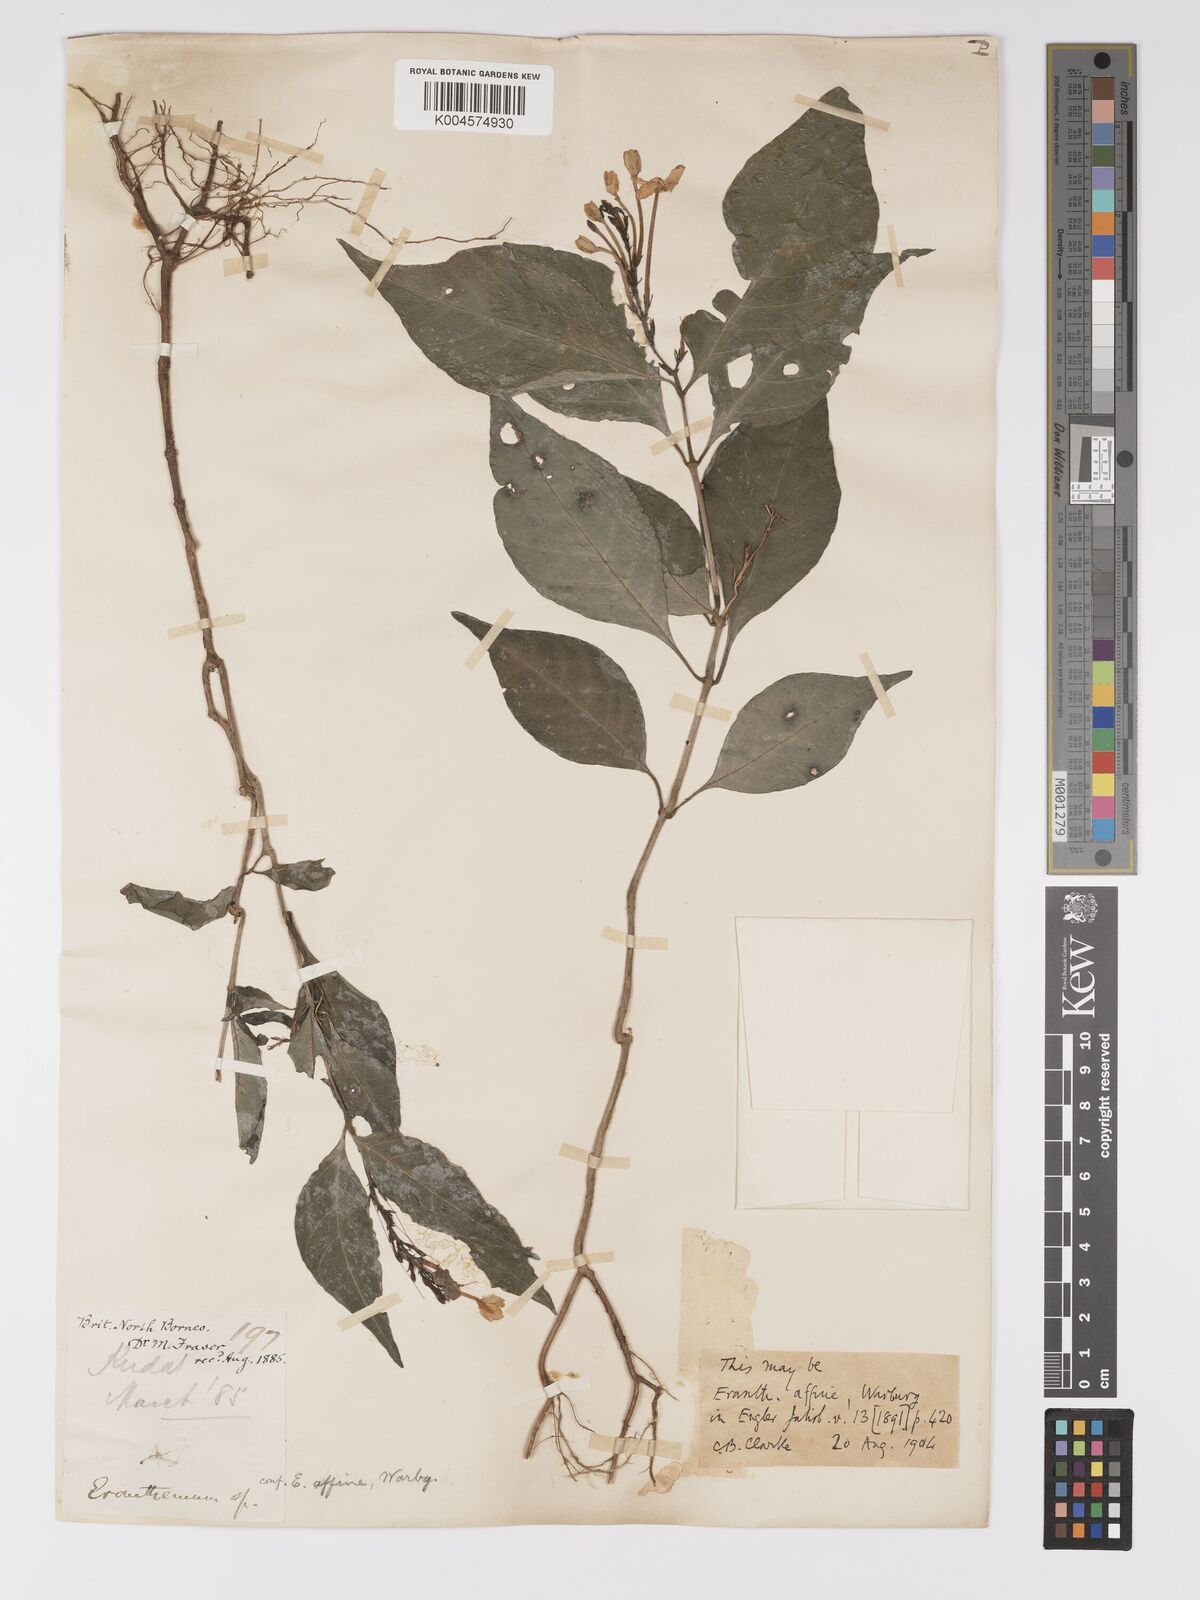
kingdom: Plantae
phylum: Tracheophyta
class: Magnoliopsida
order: Lamiales
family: Acanthaceae
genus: Ruspolia
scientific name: Ruspolia hypocrateriformis
